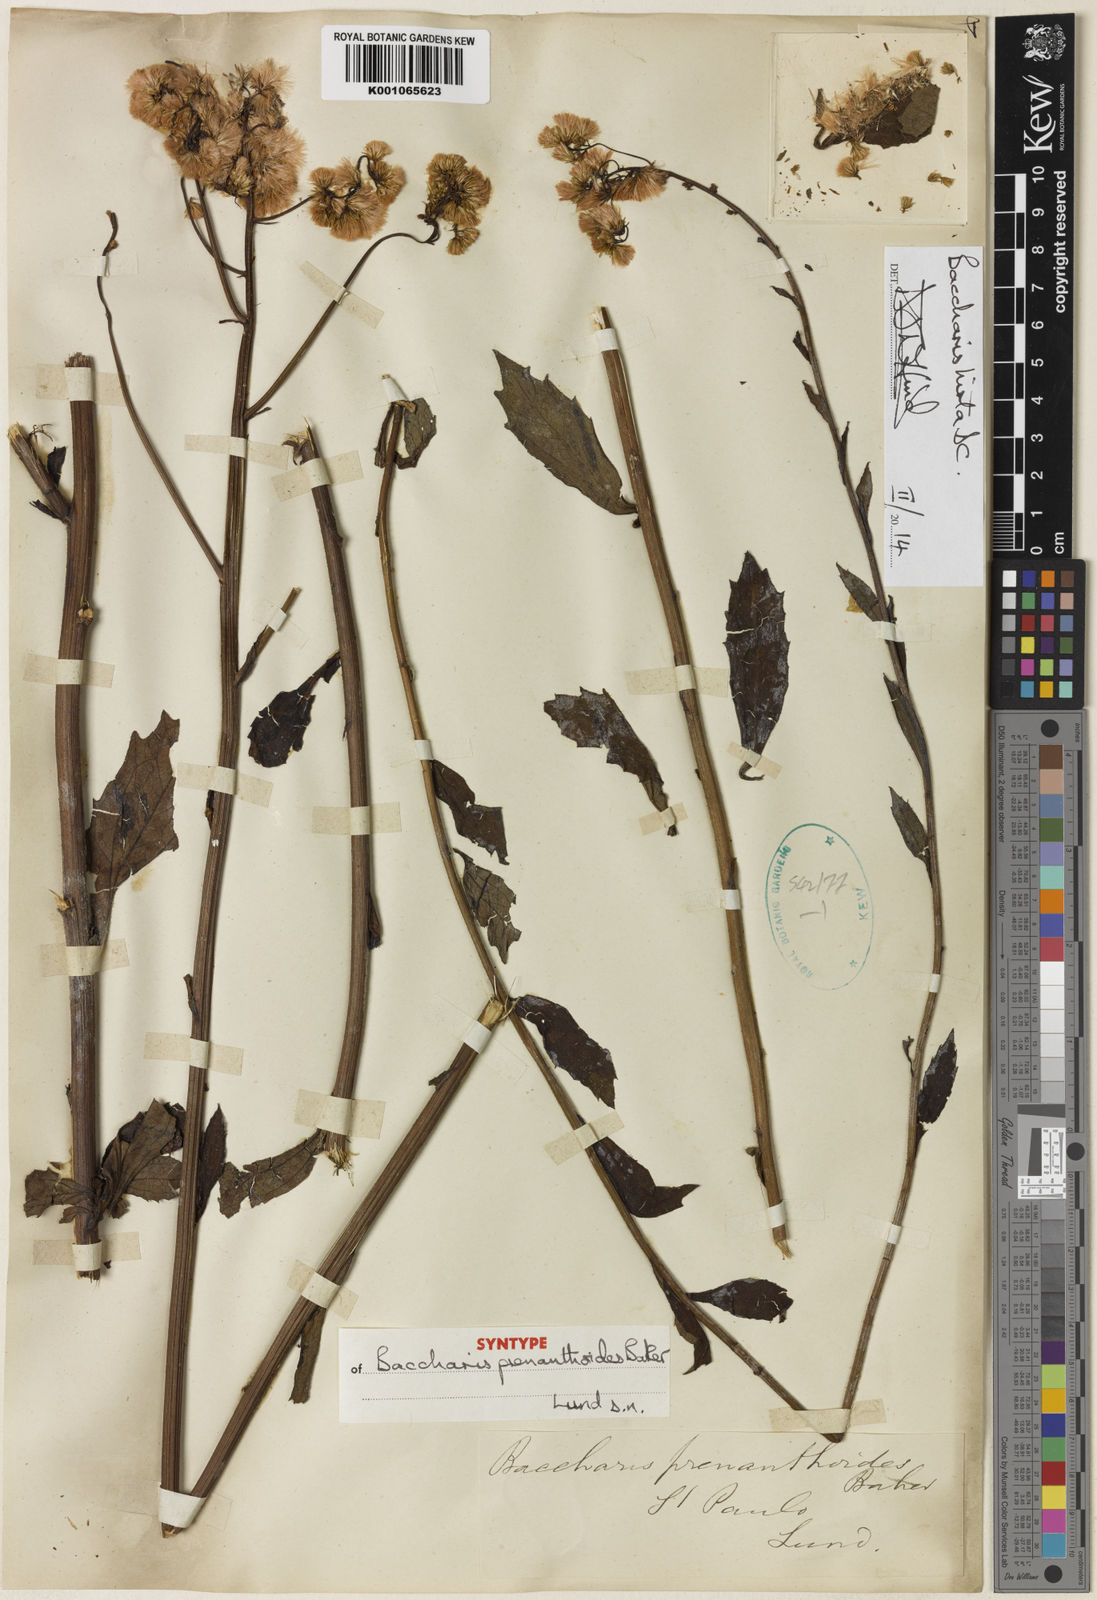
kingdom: Plantae
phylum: Tracheophyta
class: Magnoliopsida
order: Asterales
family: Asteraceae
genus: Baccharis
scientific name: Baccharis hirta
